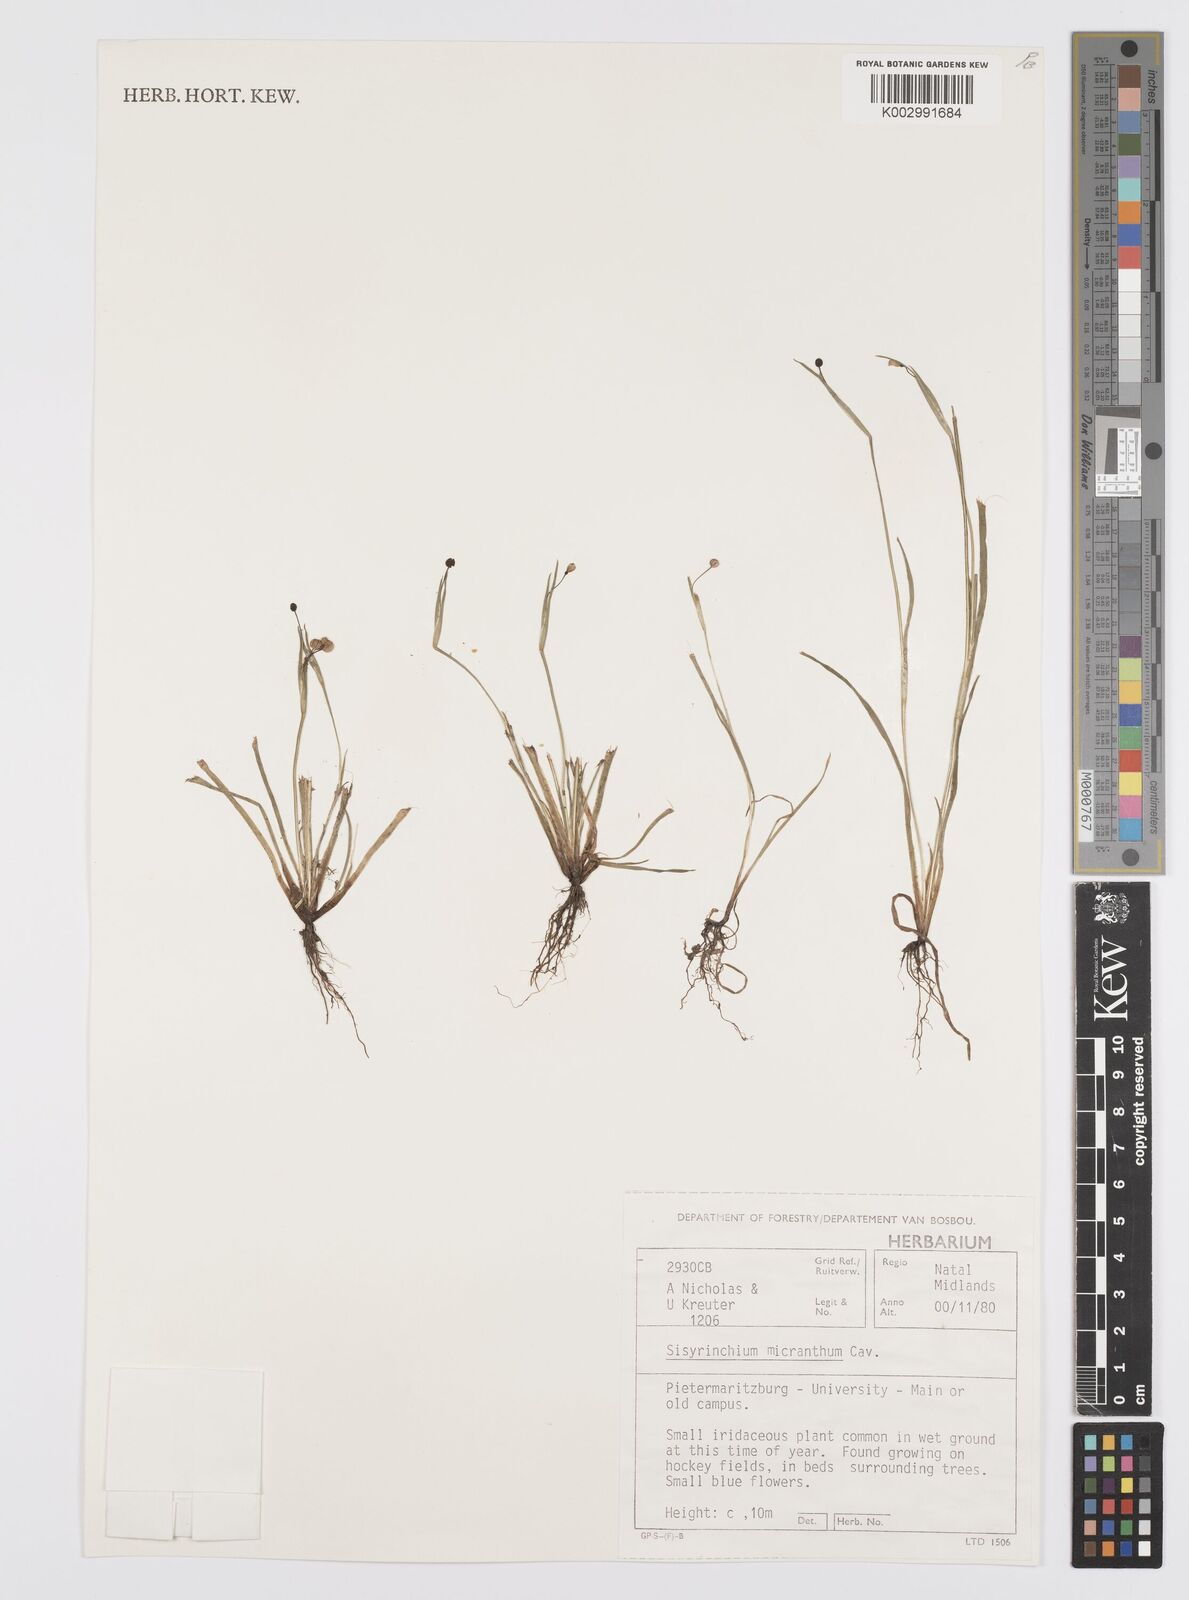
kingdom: Plantae
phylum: Tracheophyta
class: Liliopsida
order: Asparagales
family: Iridaceae
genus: Sisyrinchium
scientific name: Sisyrinchium micranthum
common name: Bermuda pigroot
